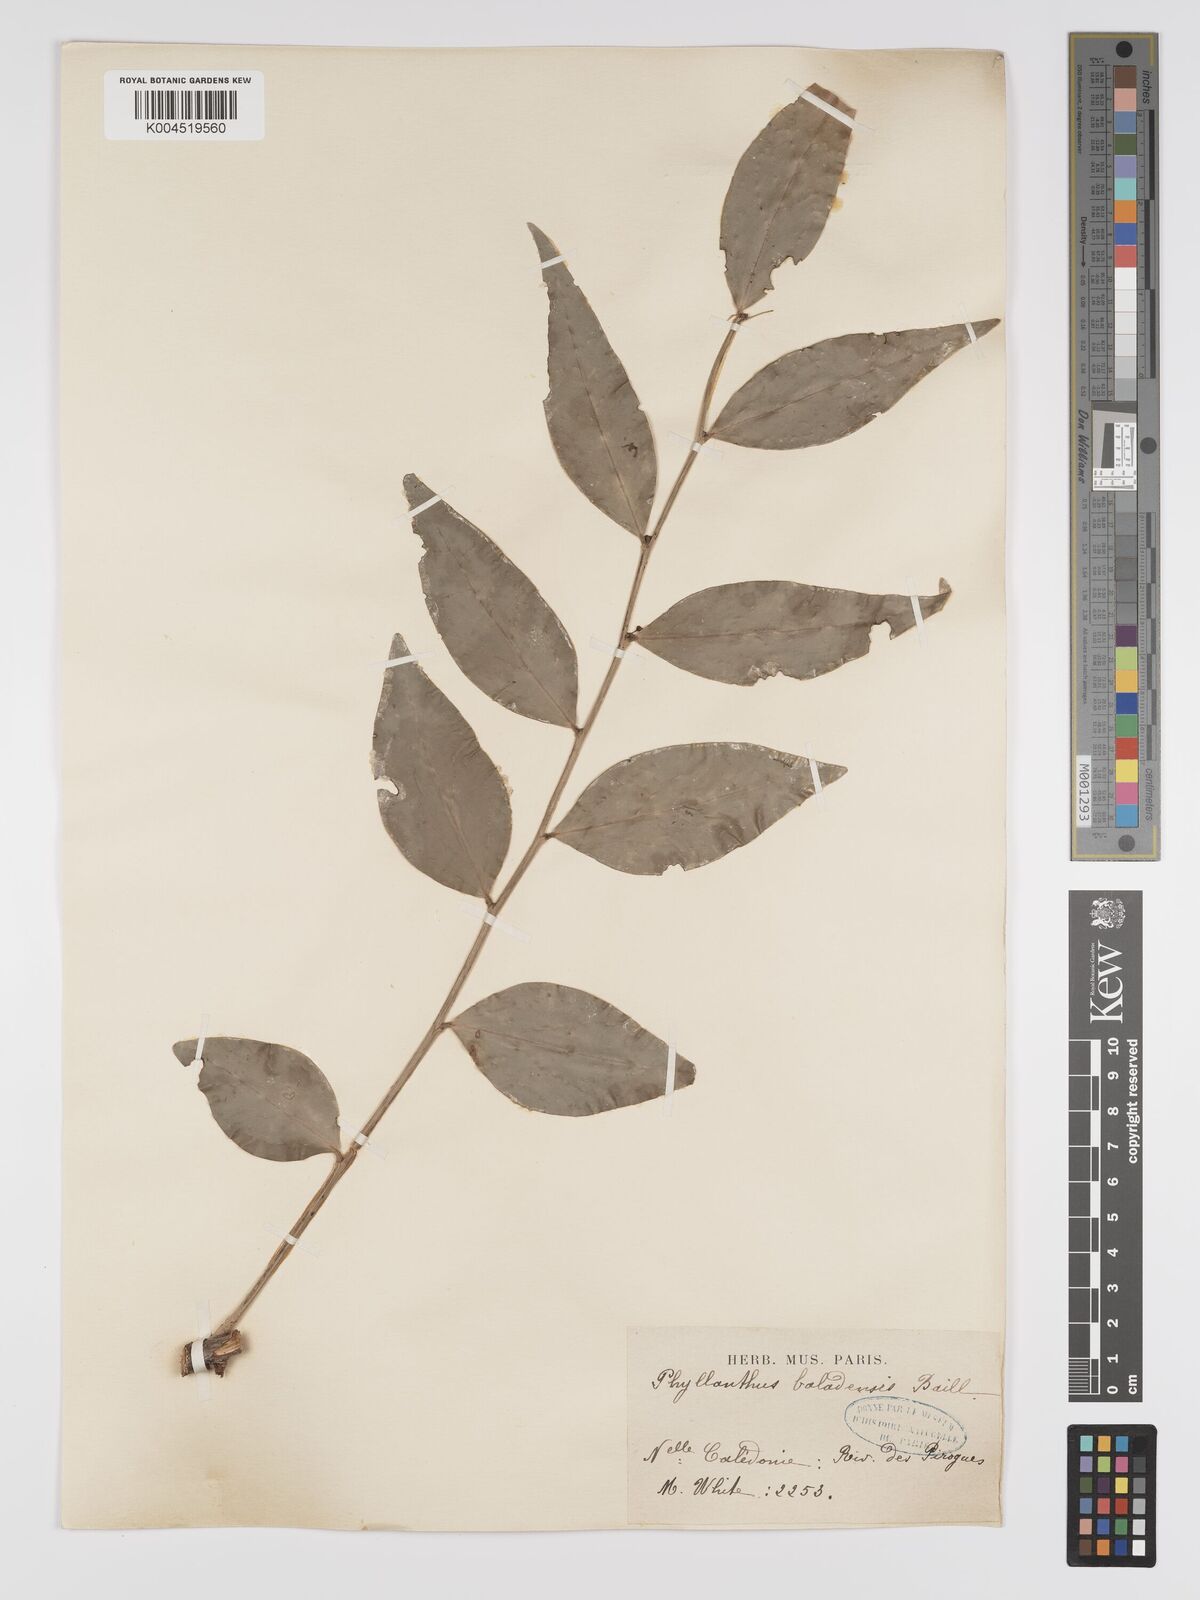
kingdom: Plantae
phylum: Tracheophyta
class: Magnoliopsida
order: Malpighiales
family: Phyllanthaceae
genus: Phyllanthus
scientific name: Phyllanthus baladensis
